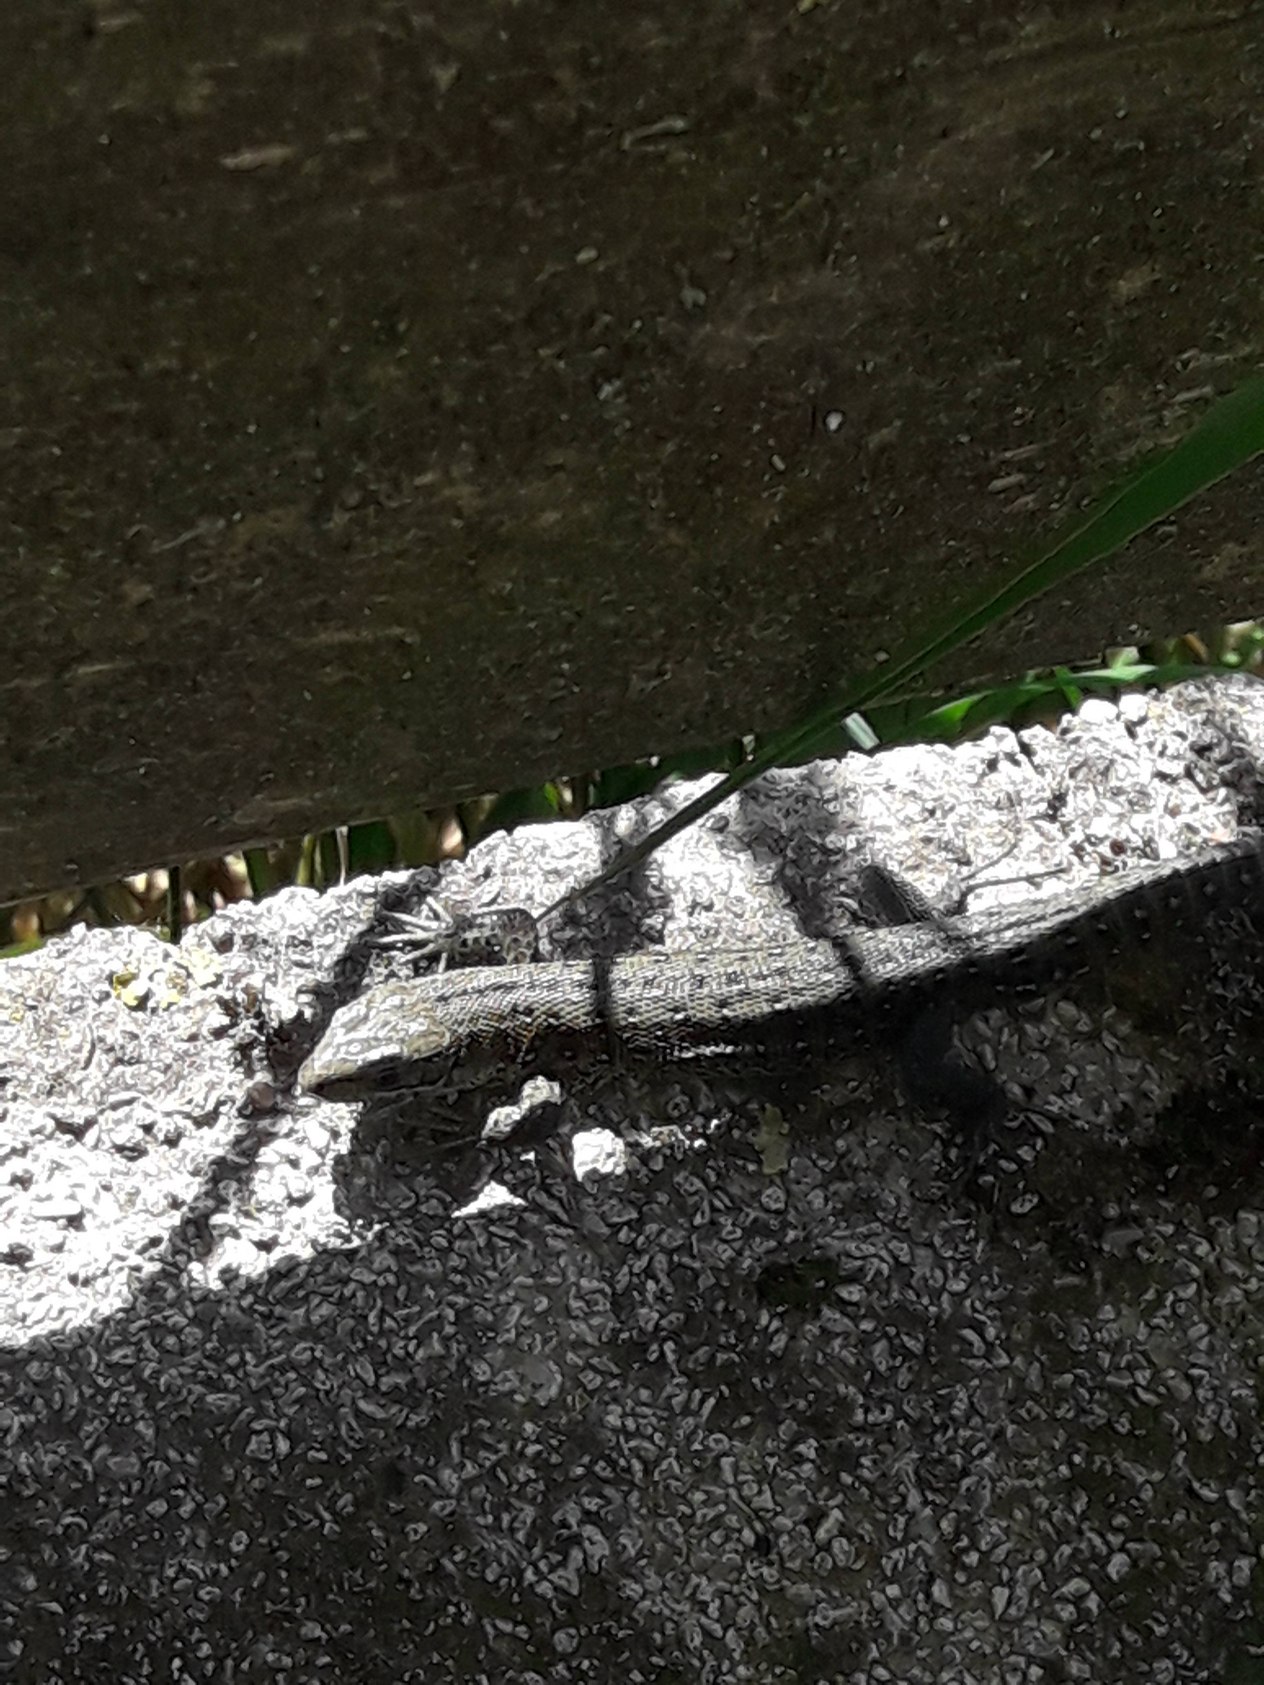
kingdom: Animalia
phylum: Chordata
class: Squamata
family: Lacertidae
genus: Zootoca
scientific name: Zootoca vivipara
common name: Skovfirben
